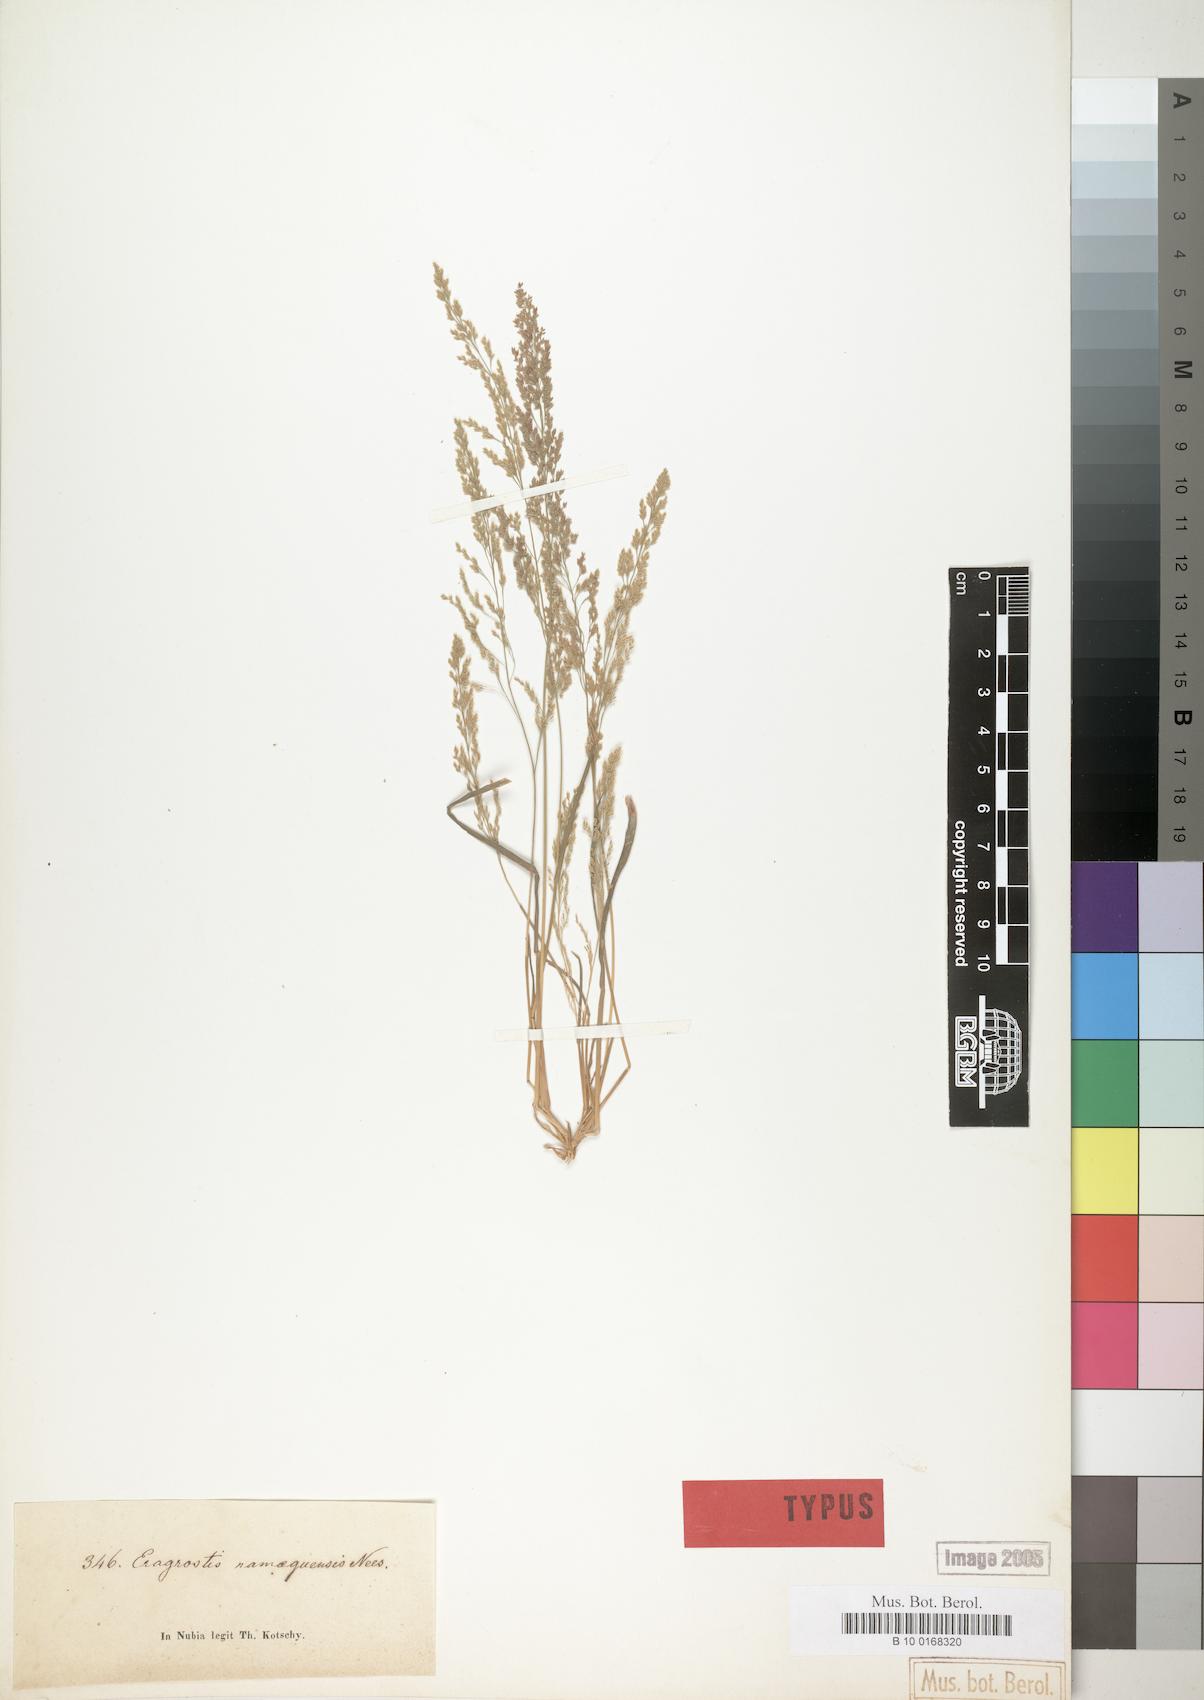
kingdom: Plantae
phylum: Tracheophyta
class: Liliopsida
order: Poales
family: Poaceae
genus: Eragrostis
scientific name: Eragrostis japonica
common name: Pond lovegrass
